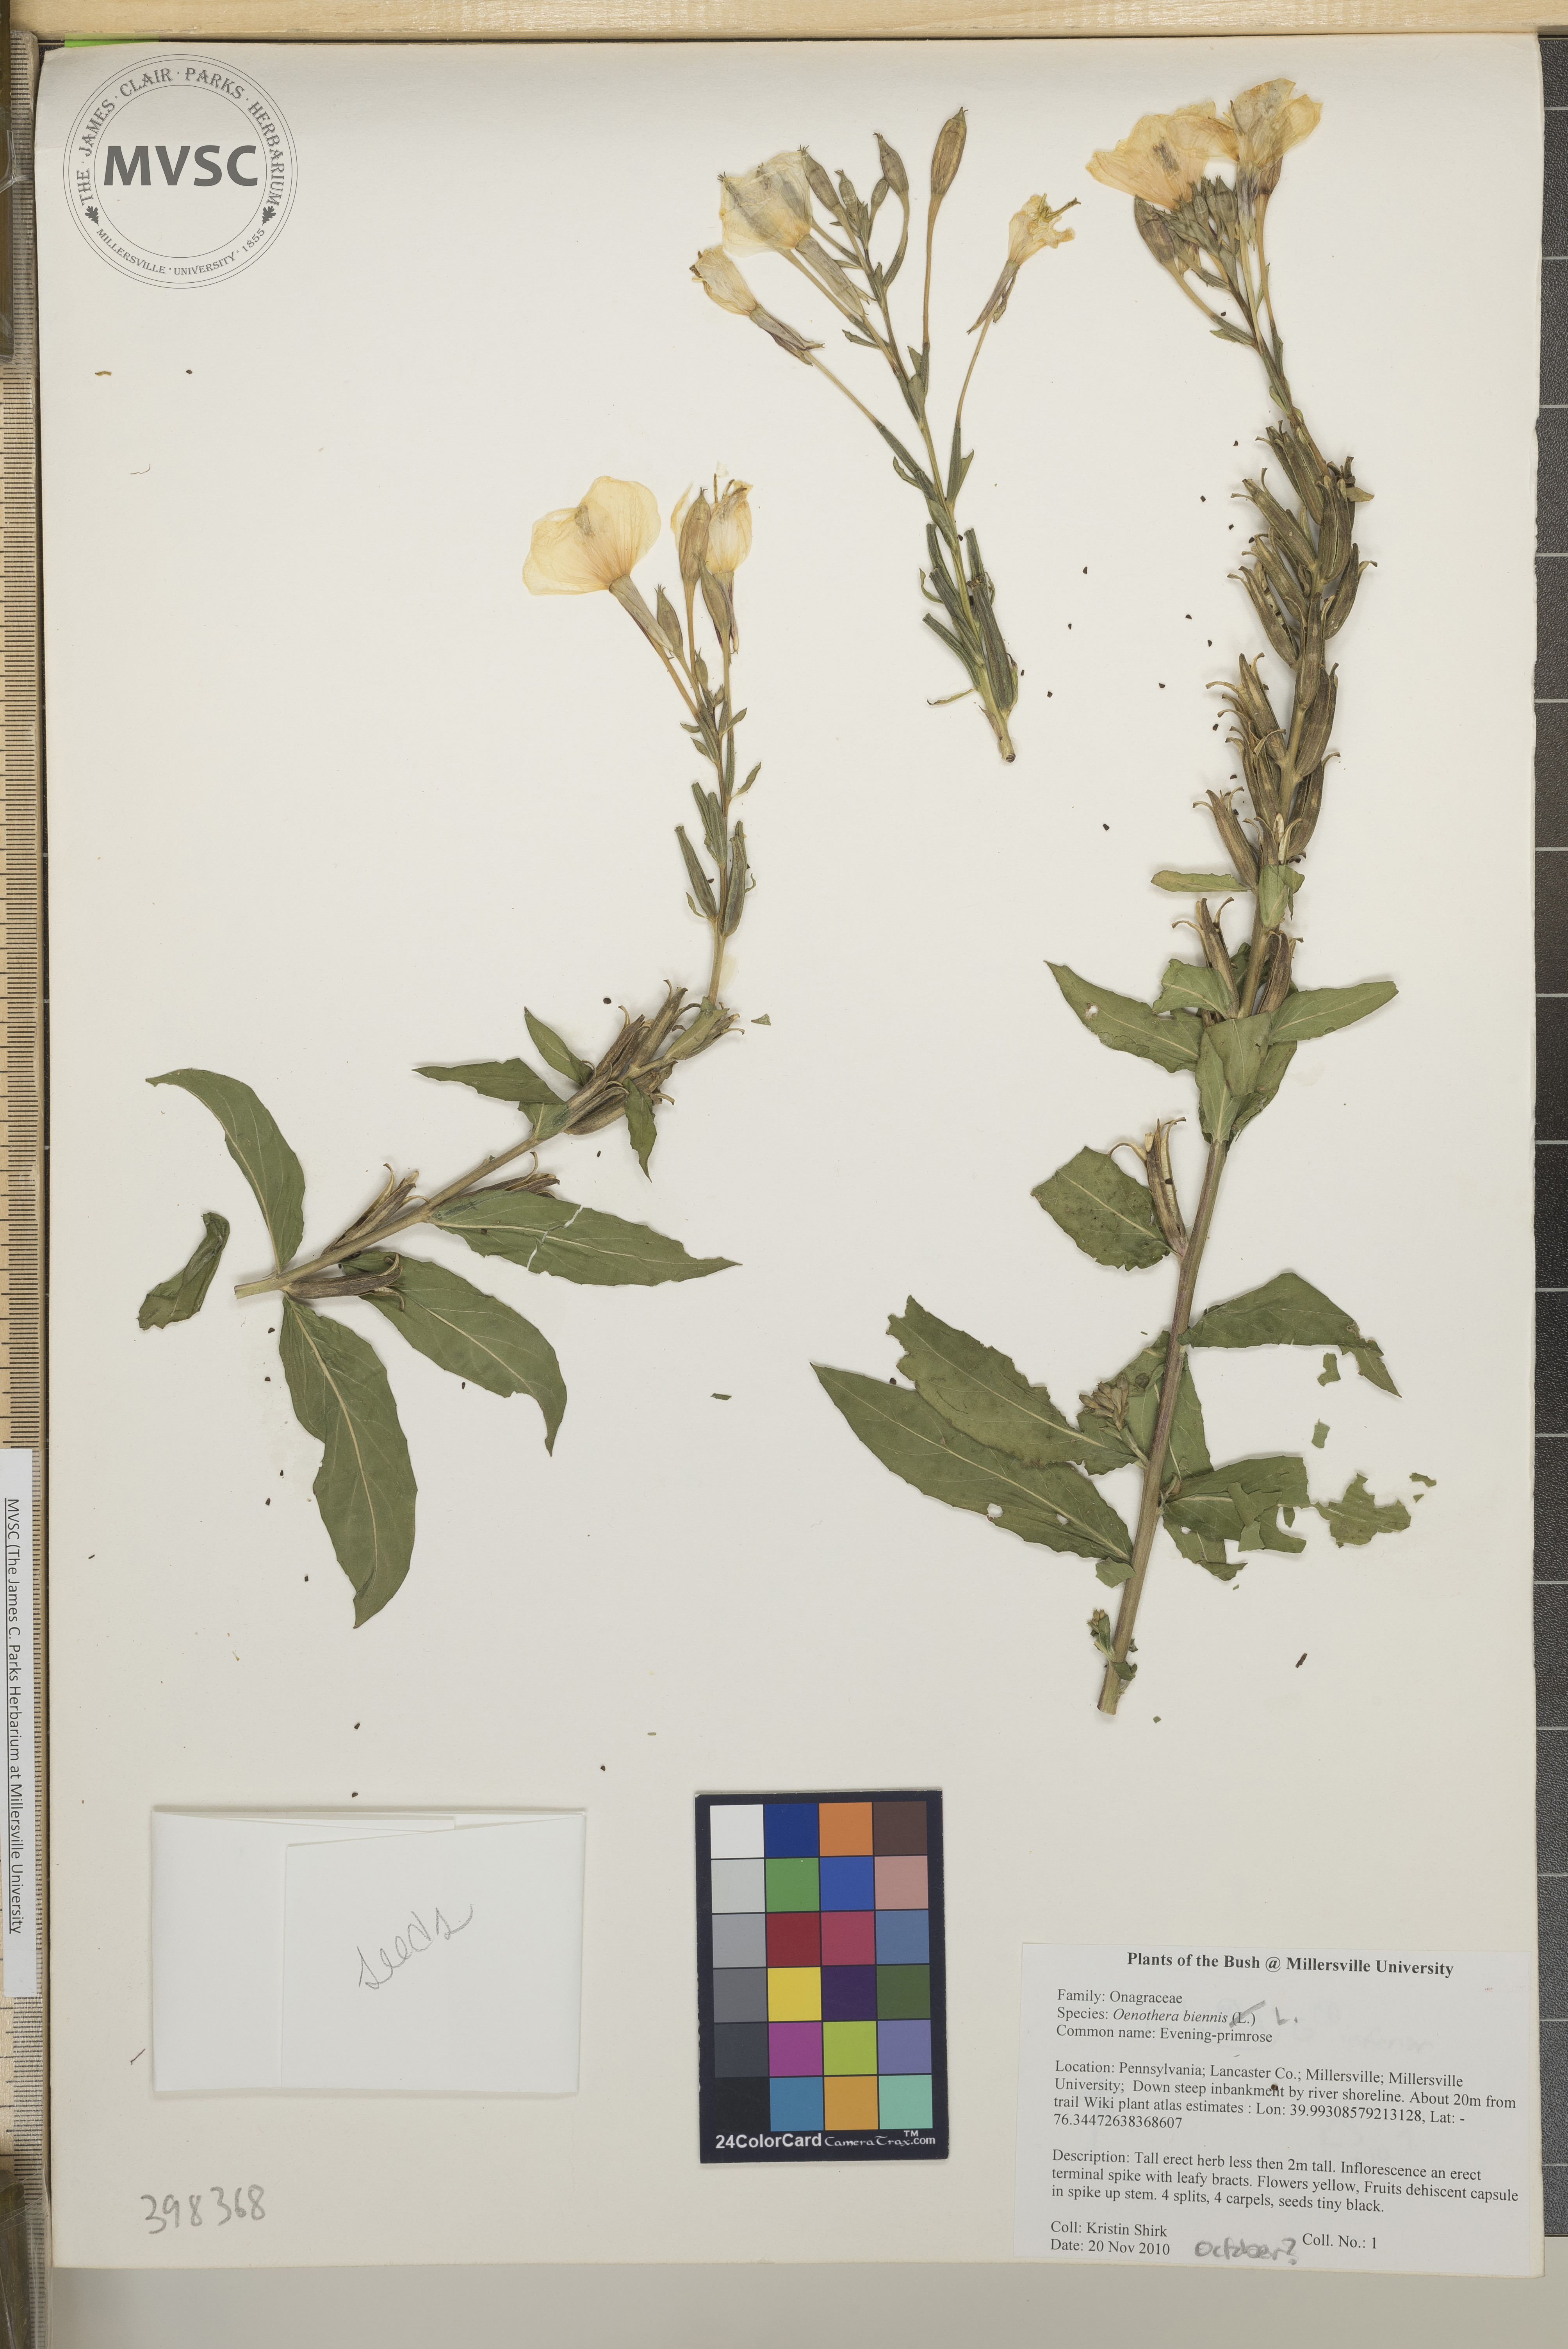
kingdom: Plantae
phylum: Tracheophyta
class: Magnoliopsida
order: Myrtales
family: Onagraceae
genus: Oenothera
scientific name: Oenothera biennis
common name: Evening-primrose
